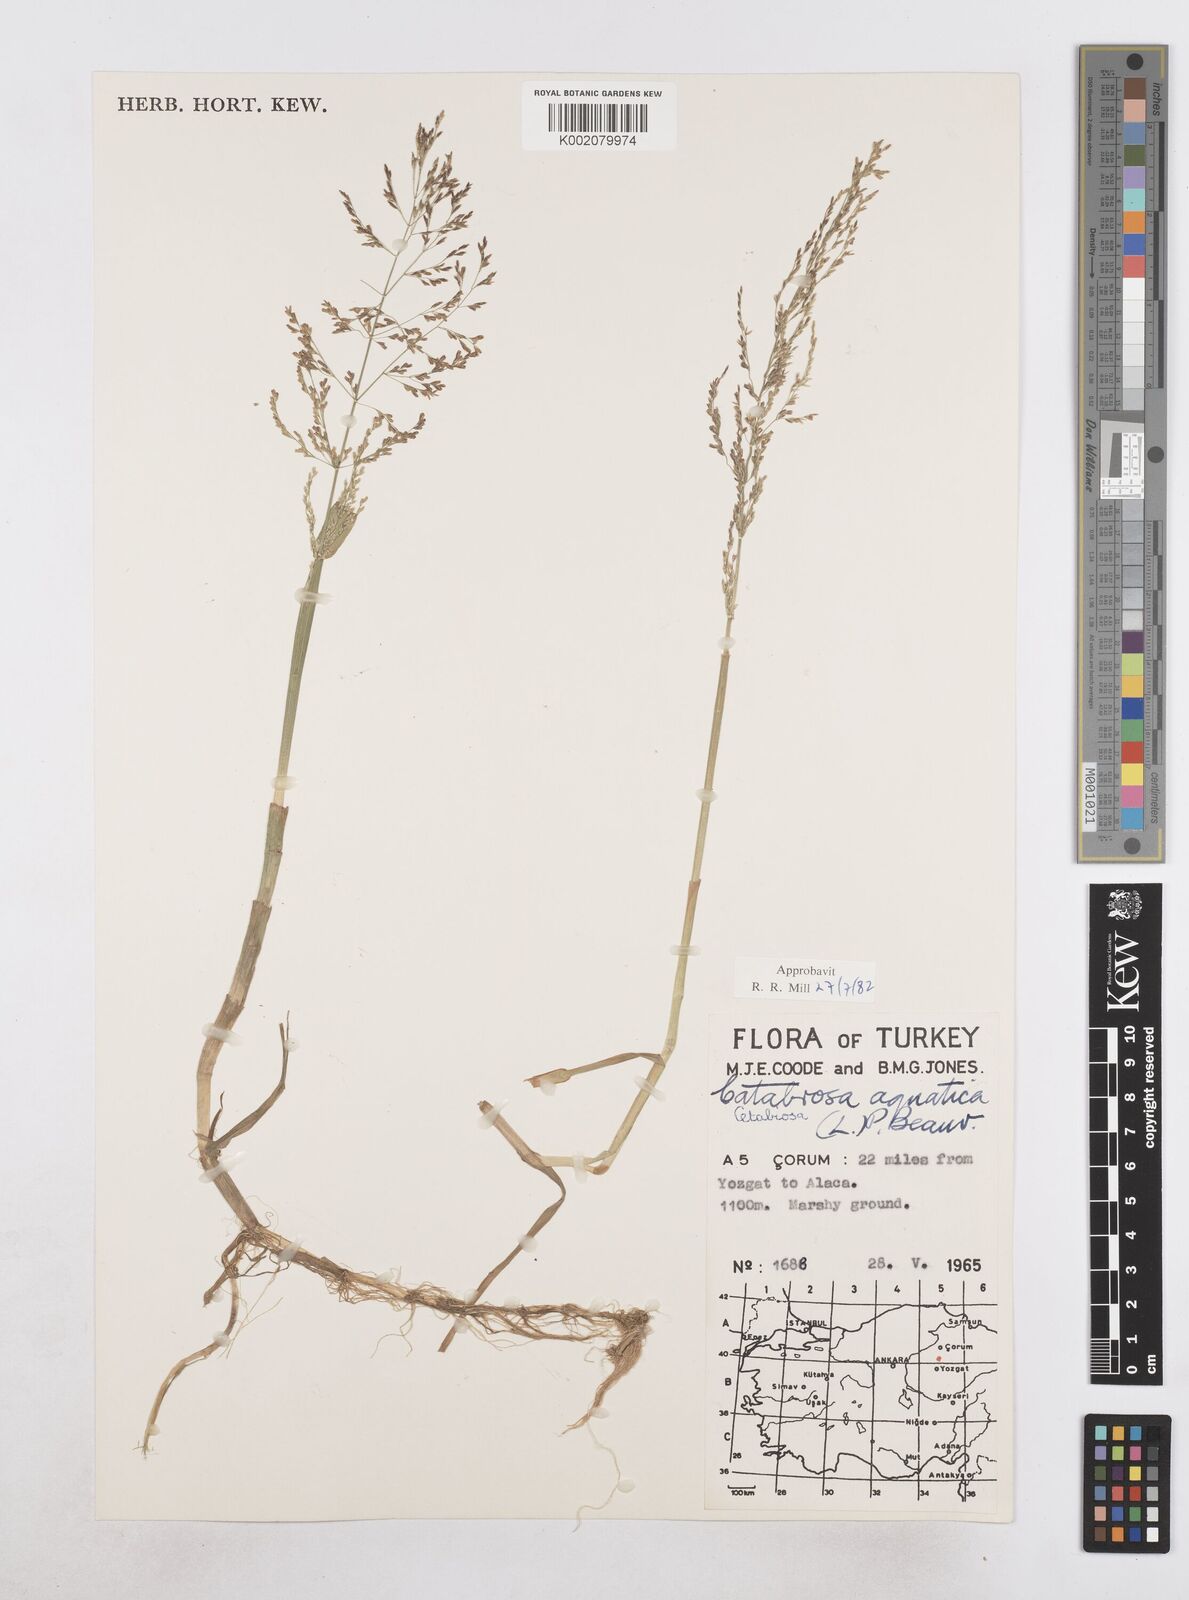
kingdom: Plantae
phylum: Tracheophyta
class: Liliopsida
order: Poales
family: Poaceae
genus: Catabrosa
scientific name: Catabrosa aquatica
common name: Whorl-grass
